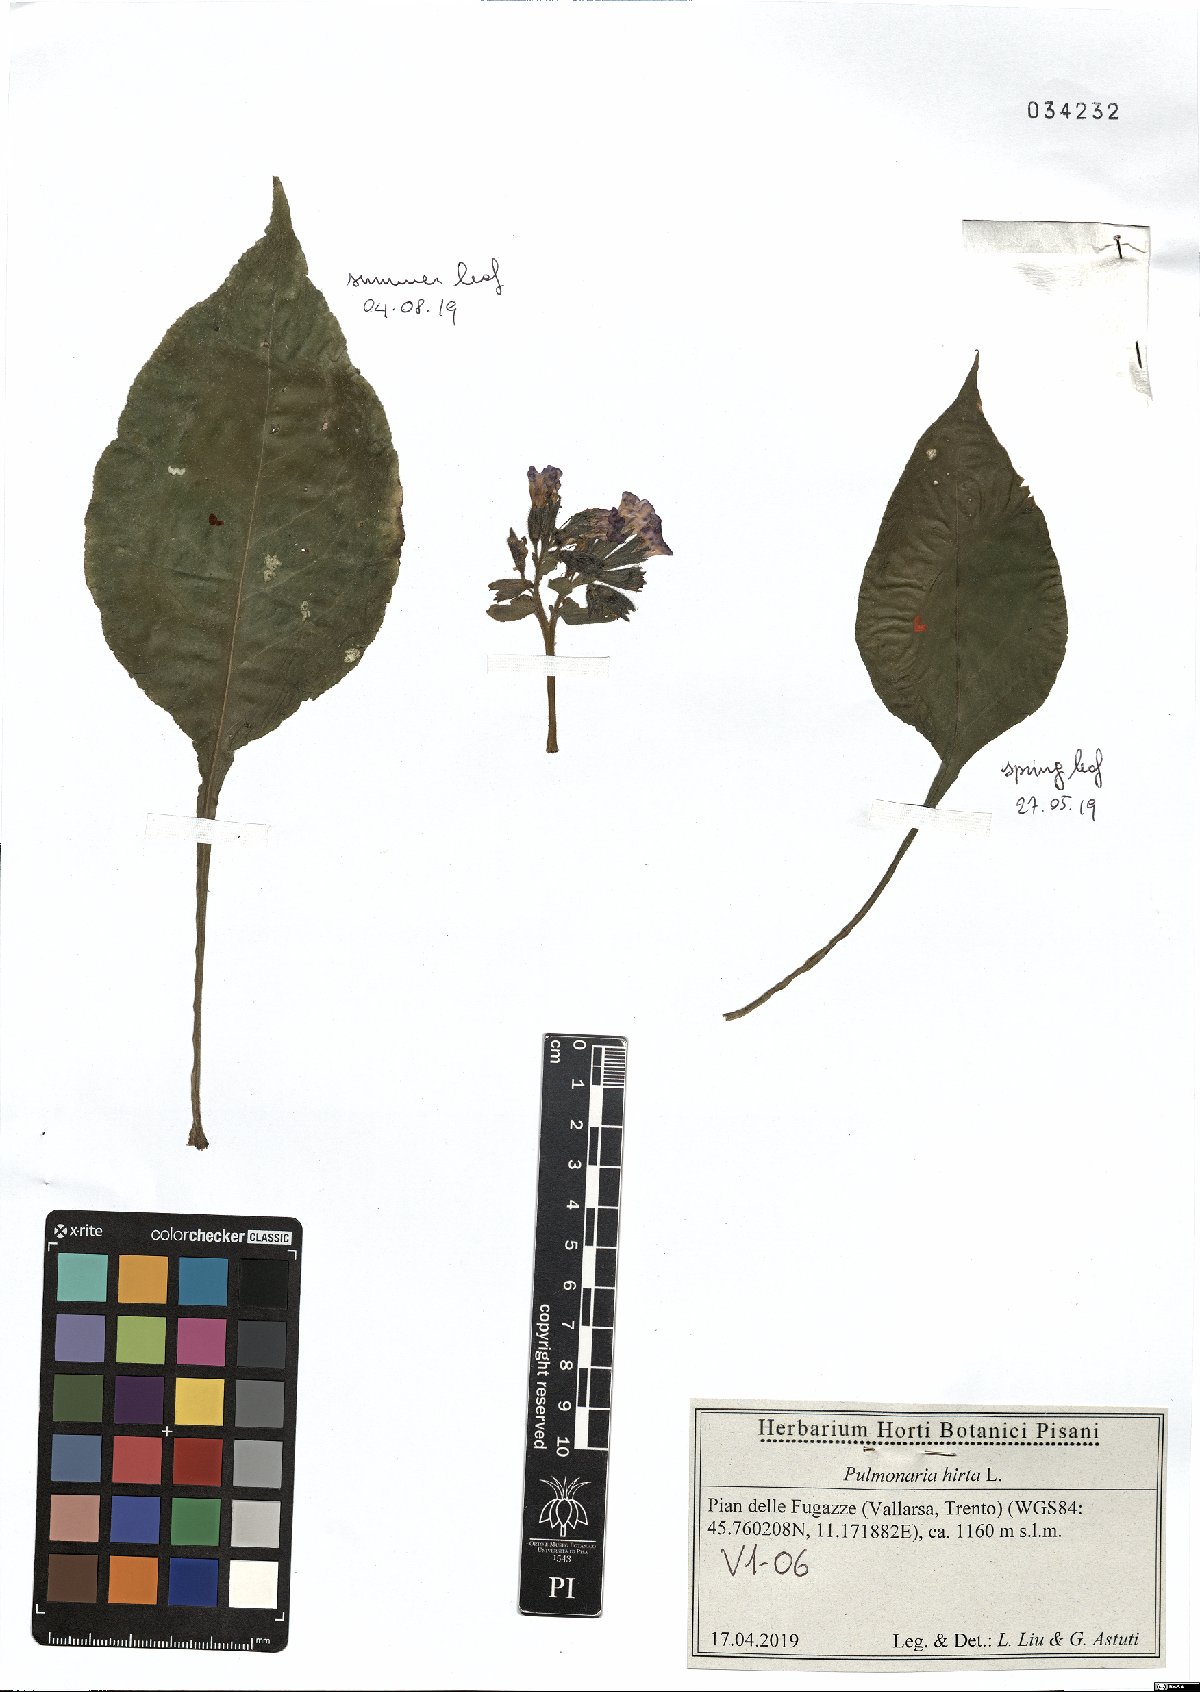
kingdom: Plantae
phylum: Tracheophyta
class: Magnoliopsida
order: Boraginales
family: Boraginaceae
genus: Pulmonaria
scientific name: Pulmonaria hirta
